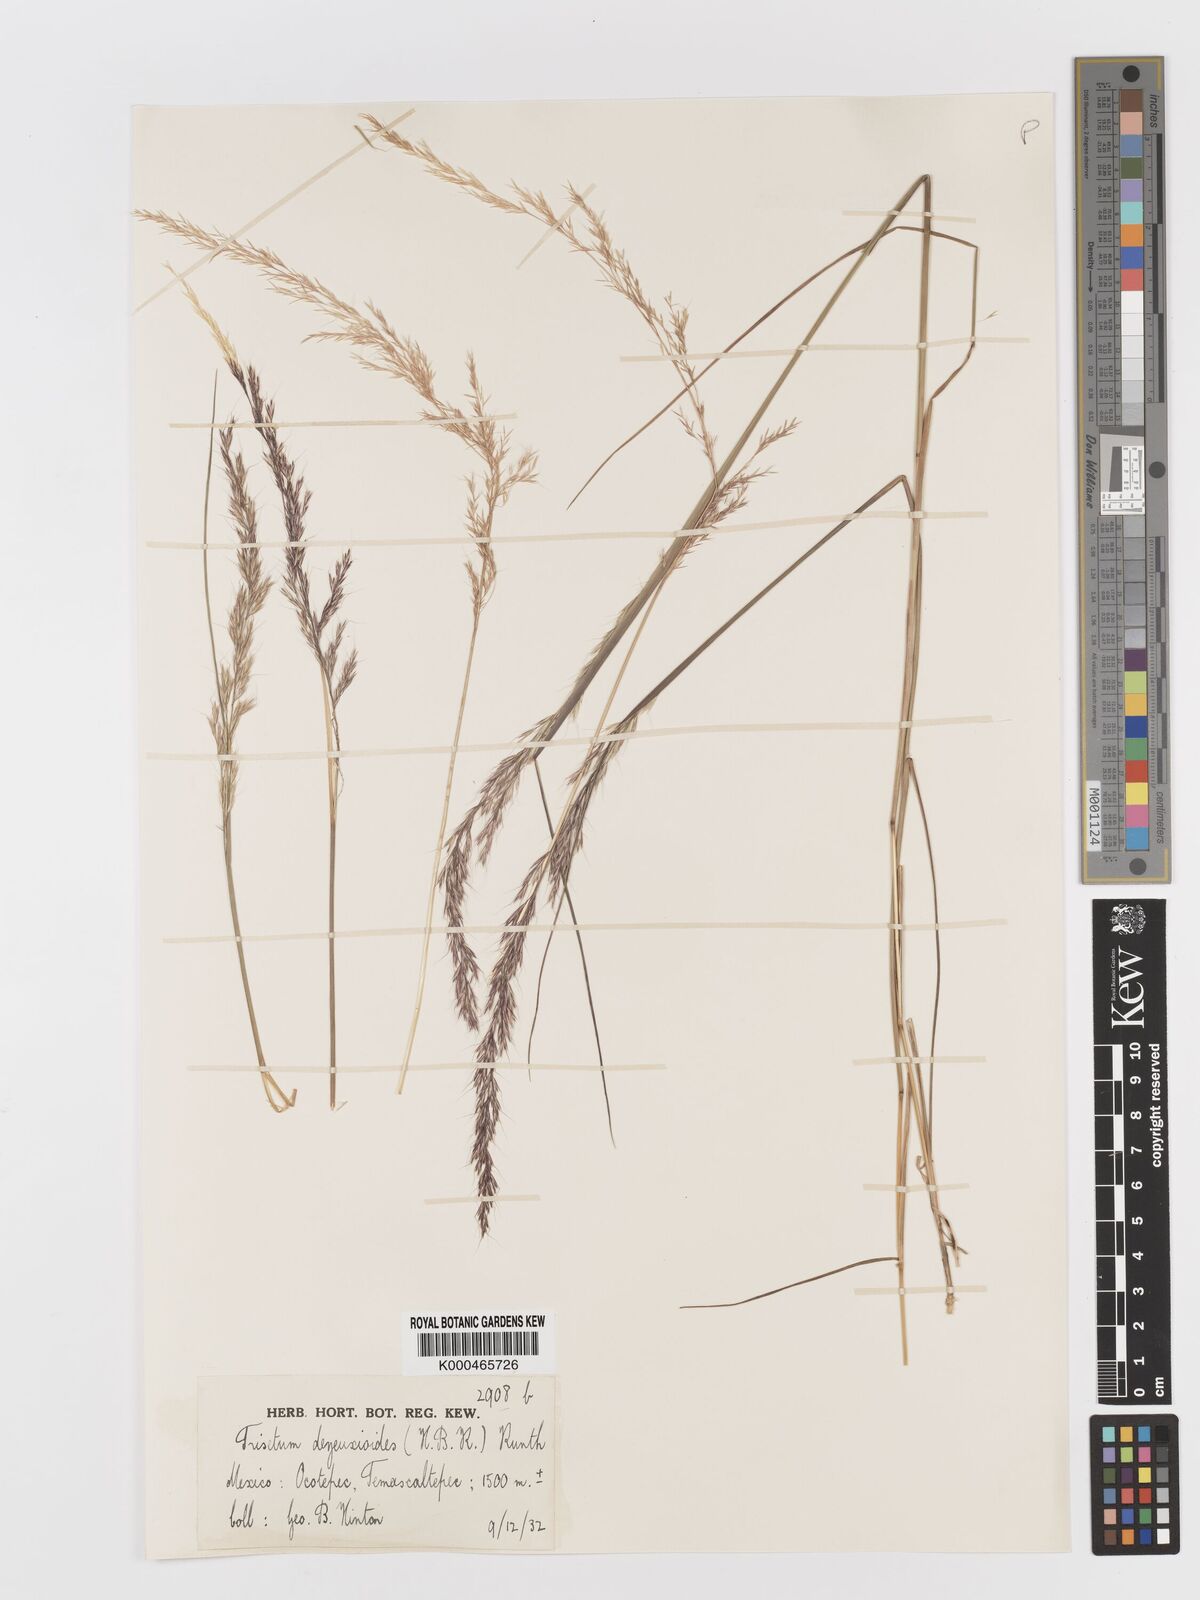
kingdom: Plantae
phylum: Tracheophyta
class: Liliopsida
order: Poales
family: Poaceae
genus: Peyritschia
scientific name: Peyritschia deyeuxioides
